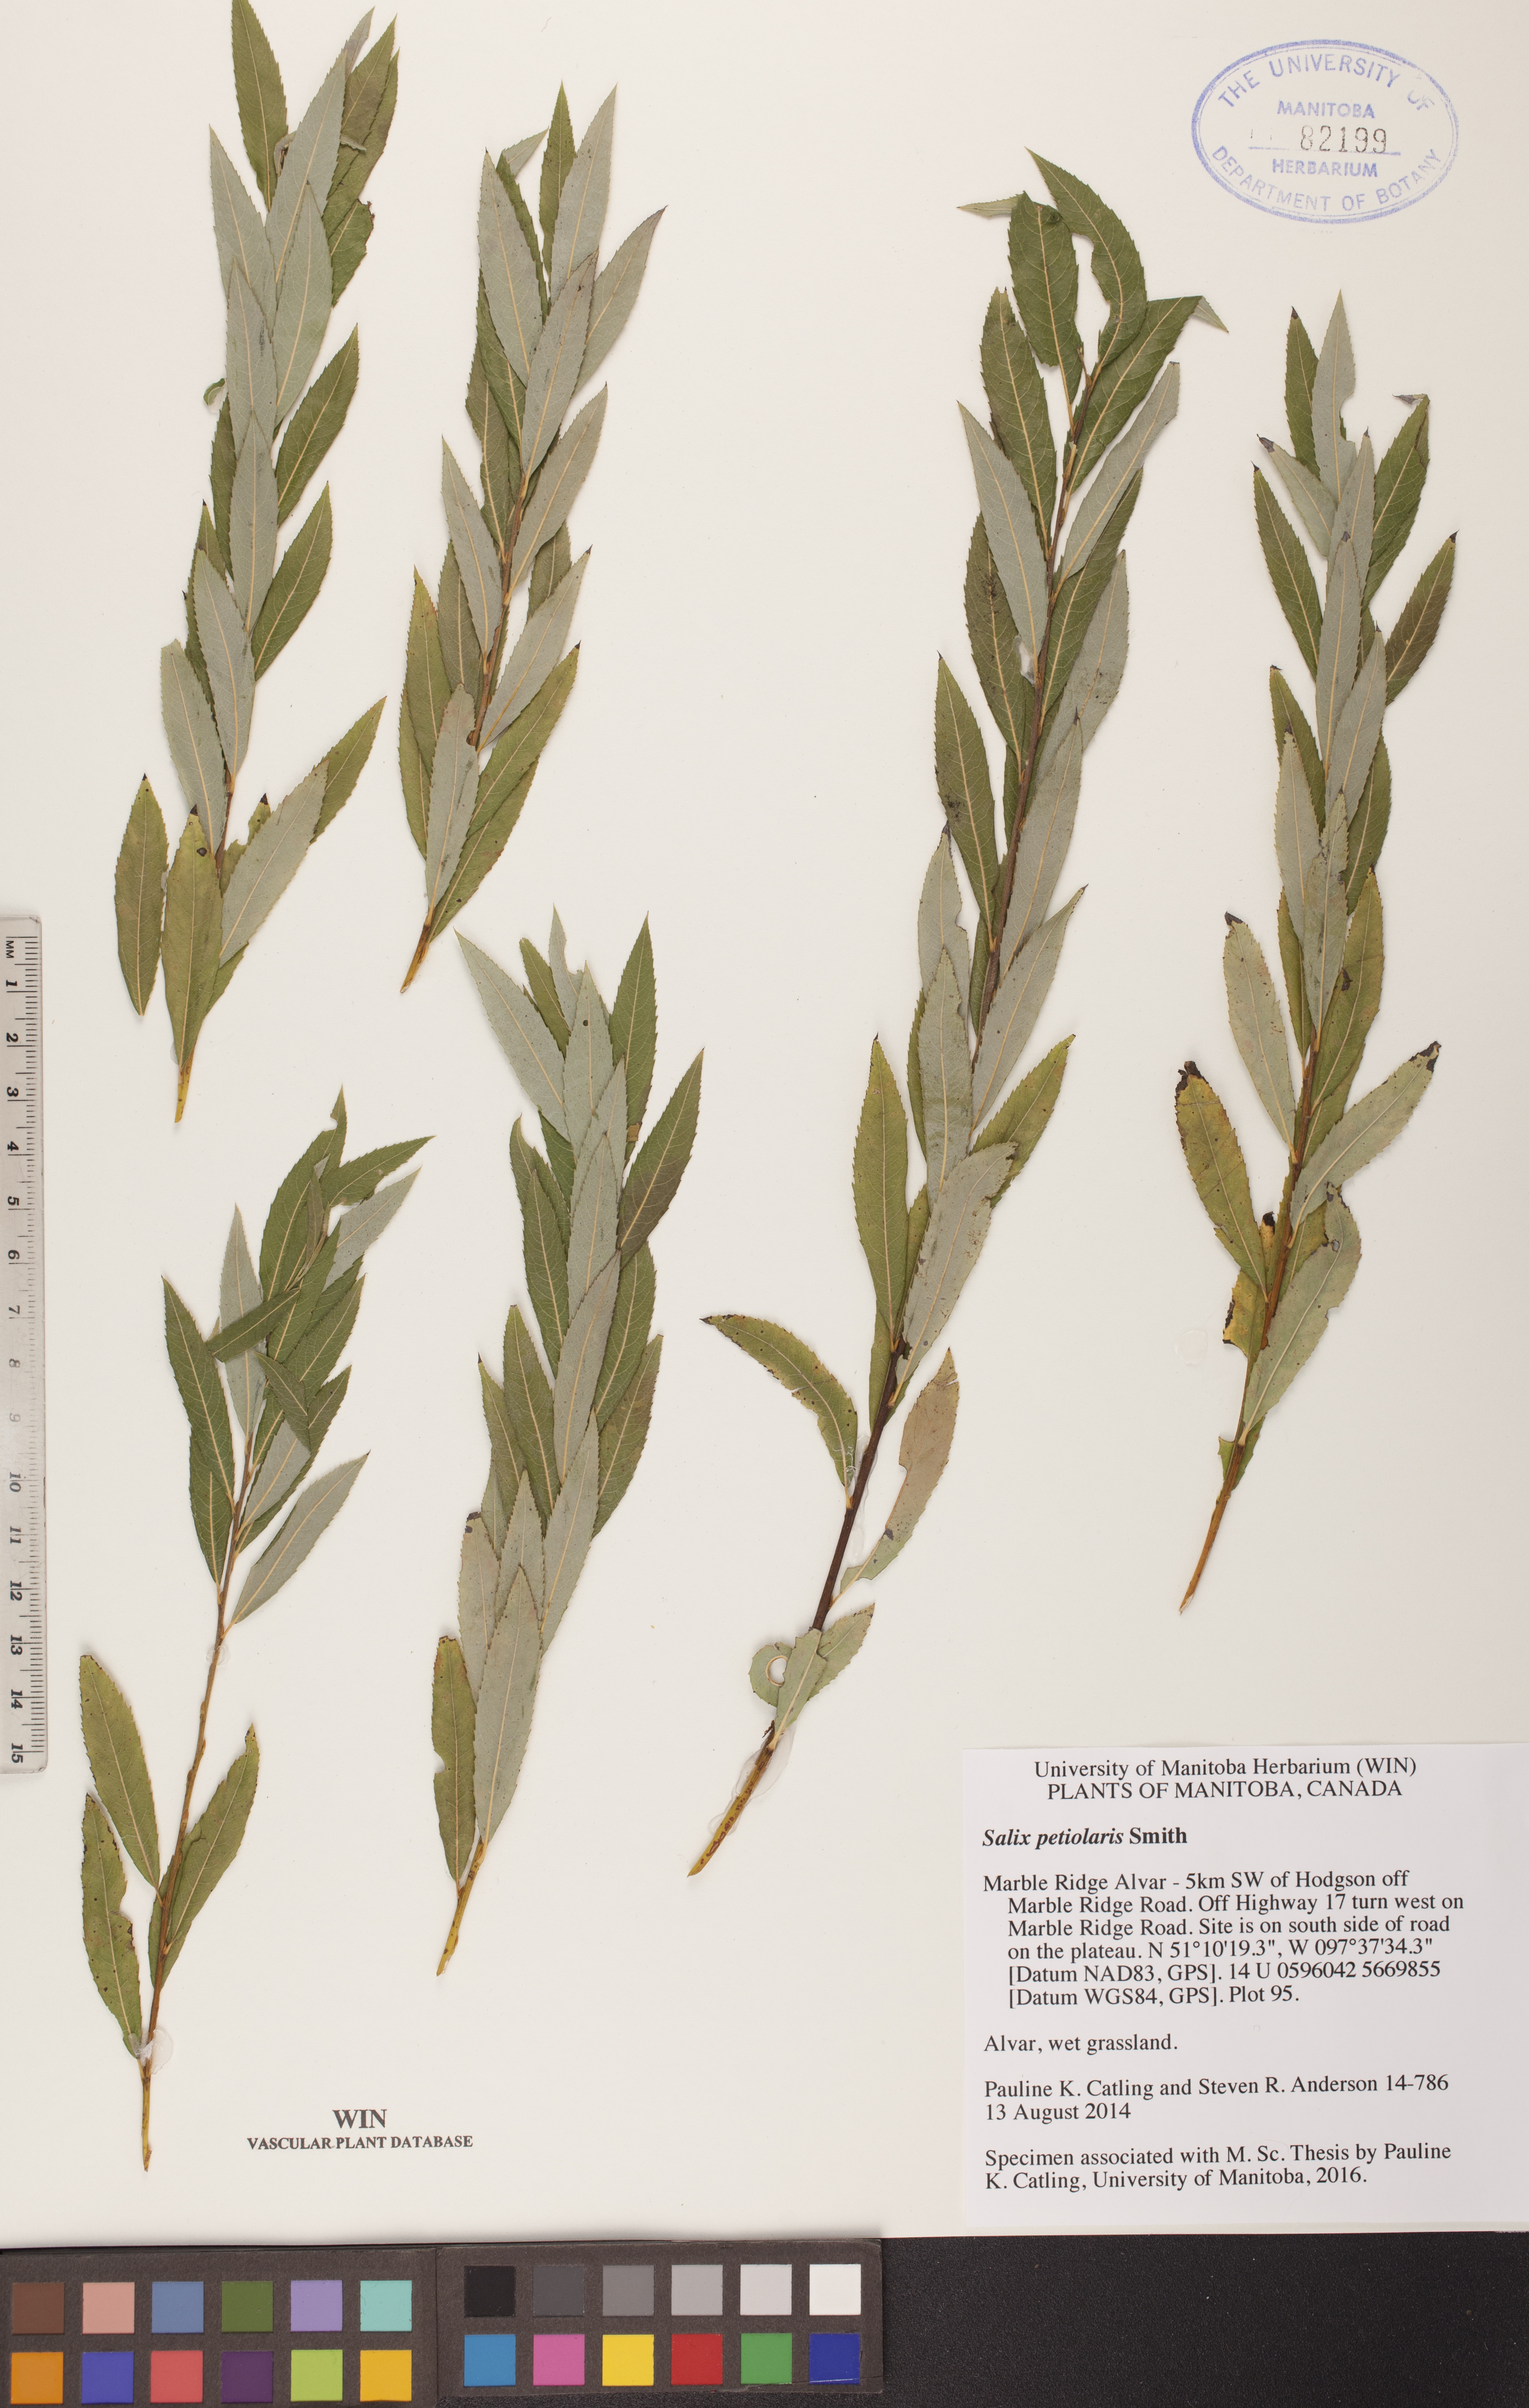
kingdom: Plantae
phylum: Tracheophyta
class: Magnoliopsida
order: Malpighiales
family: Salicaceae
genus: Salix
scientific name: Salix petiolaris
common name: Slender willow
